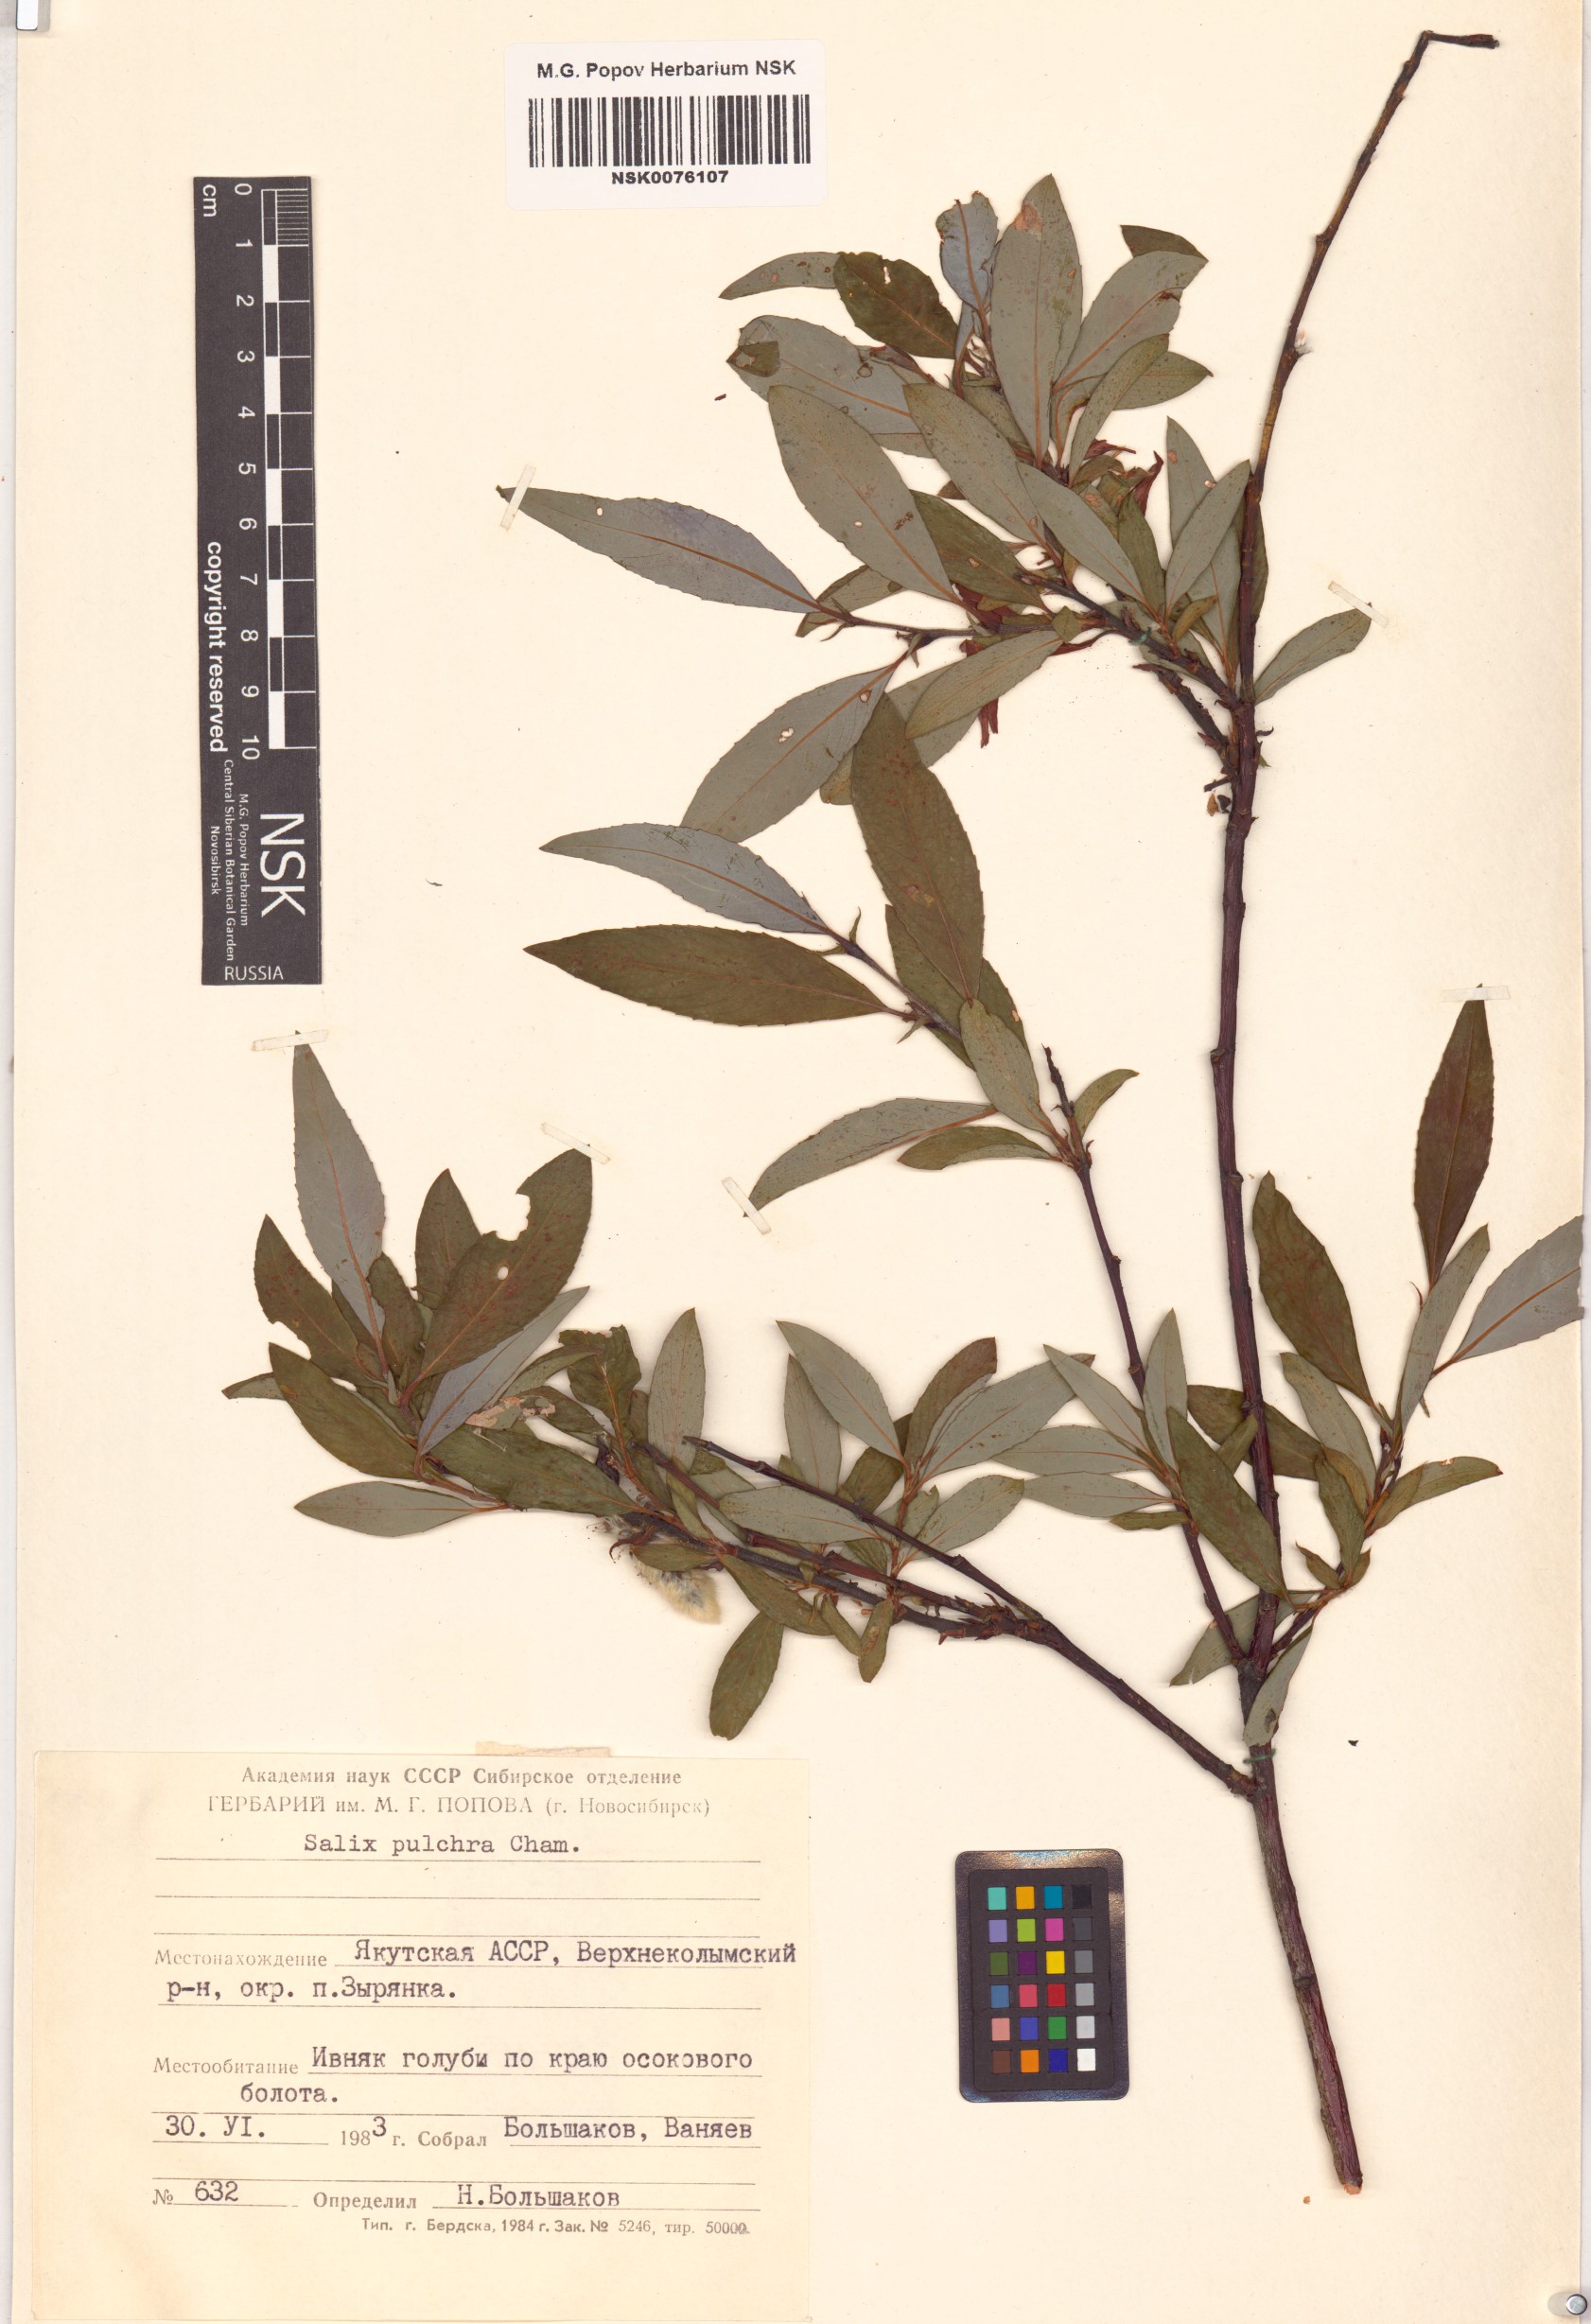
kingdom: Plantae
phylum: Tracheophyta
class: Magnoliopsida
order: Malpighiales
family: Salicaceae
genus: Salix
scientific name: Salix pulchra
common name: Diamond-leaved willow
